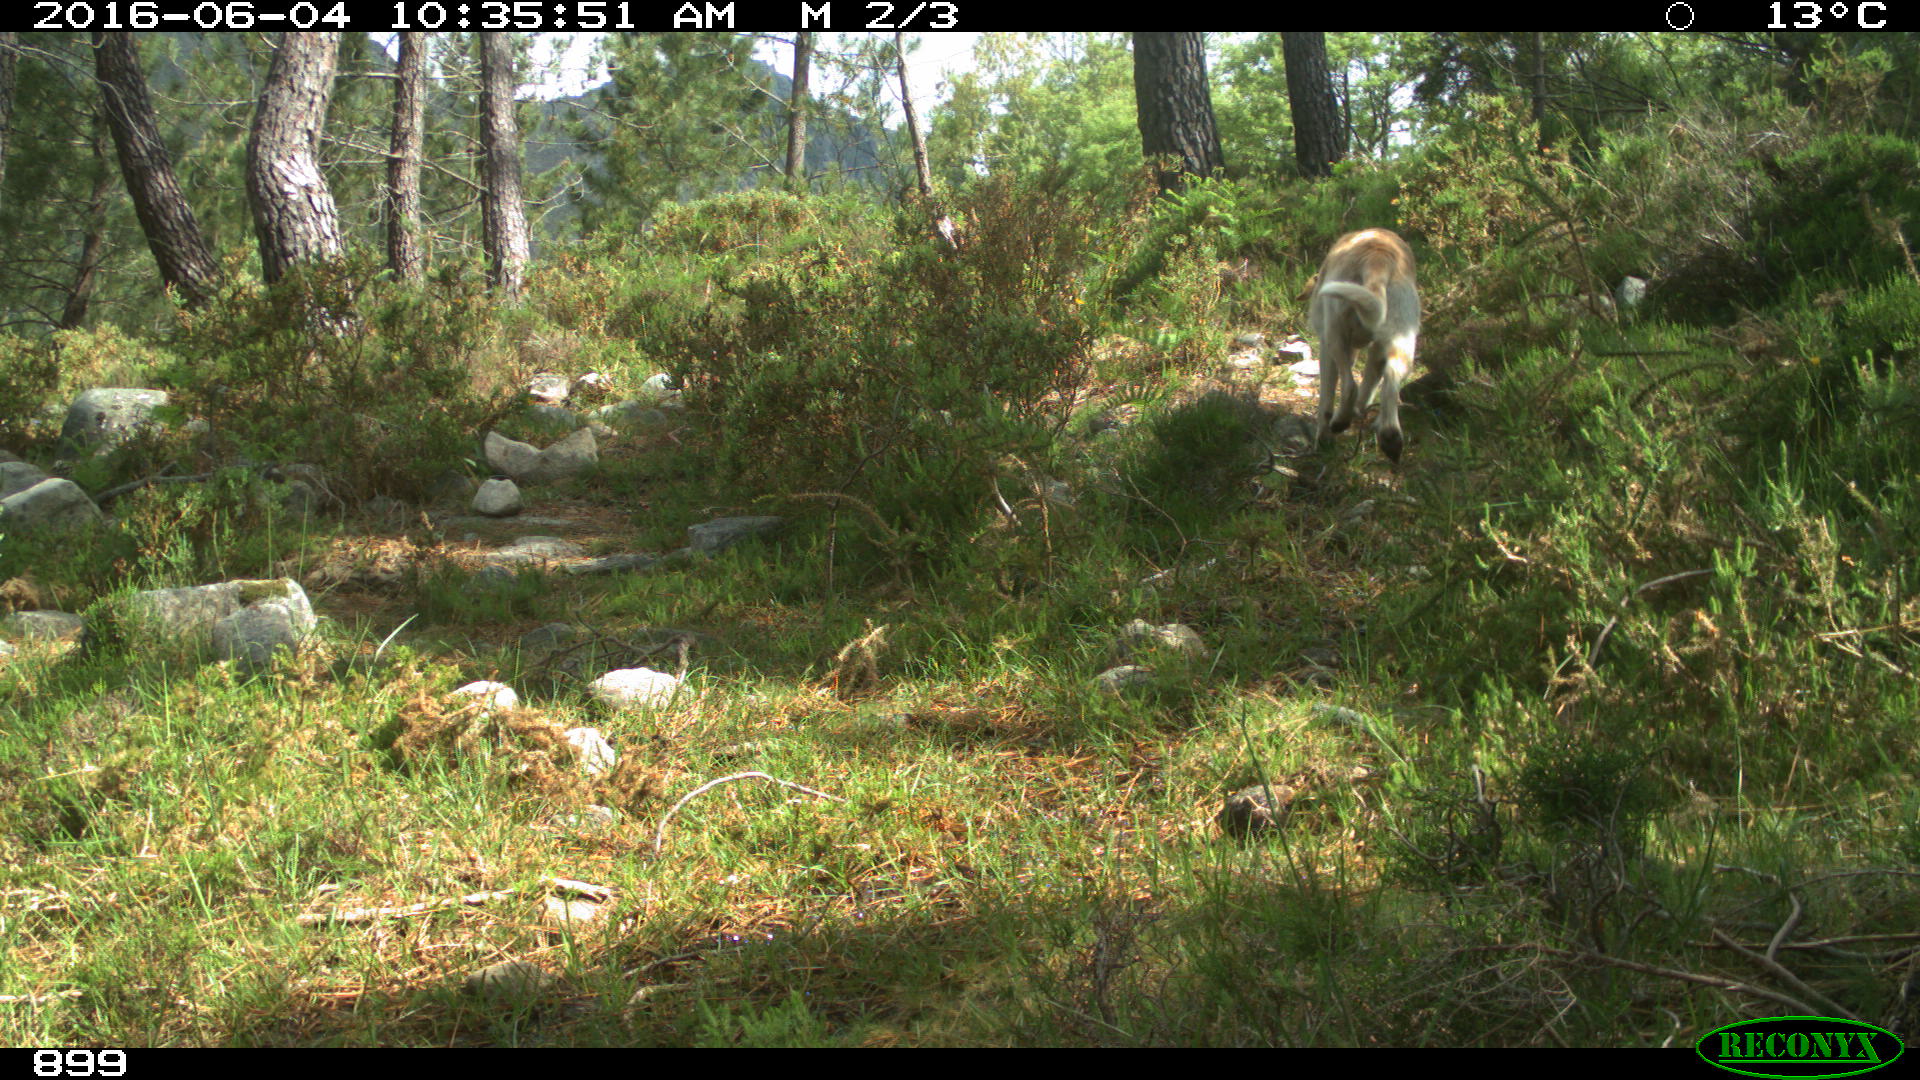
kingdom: Animalia
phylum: Chordata
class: Mammalia
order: Carnivora
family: Canidae
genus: Canis
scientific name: Canis lupus
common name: Gray wolf
